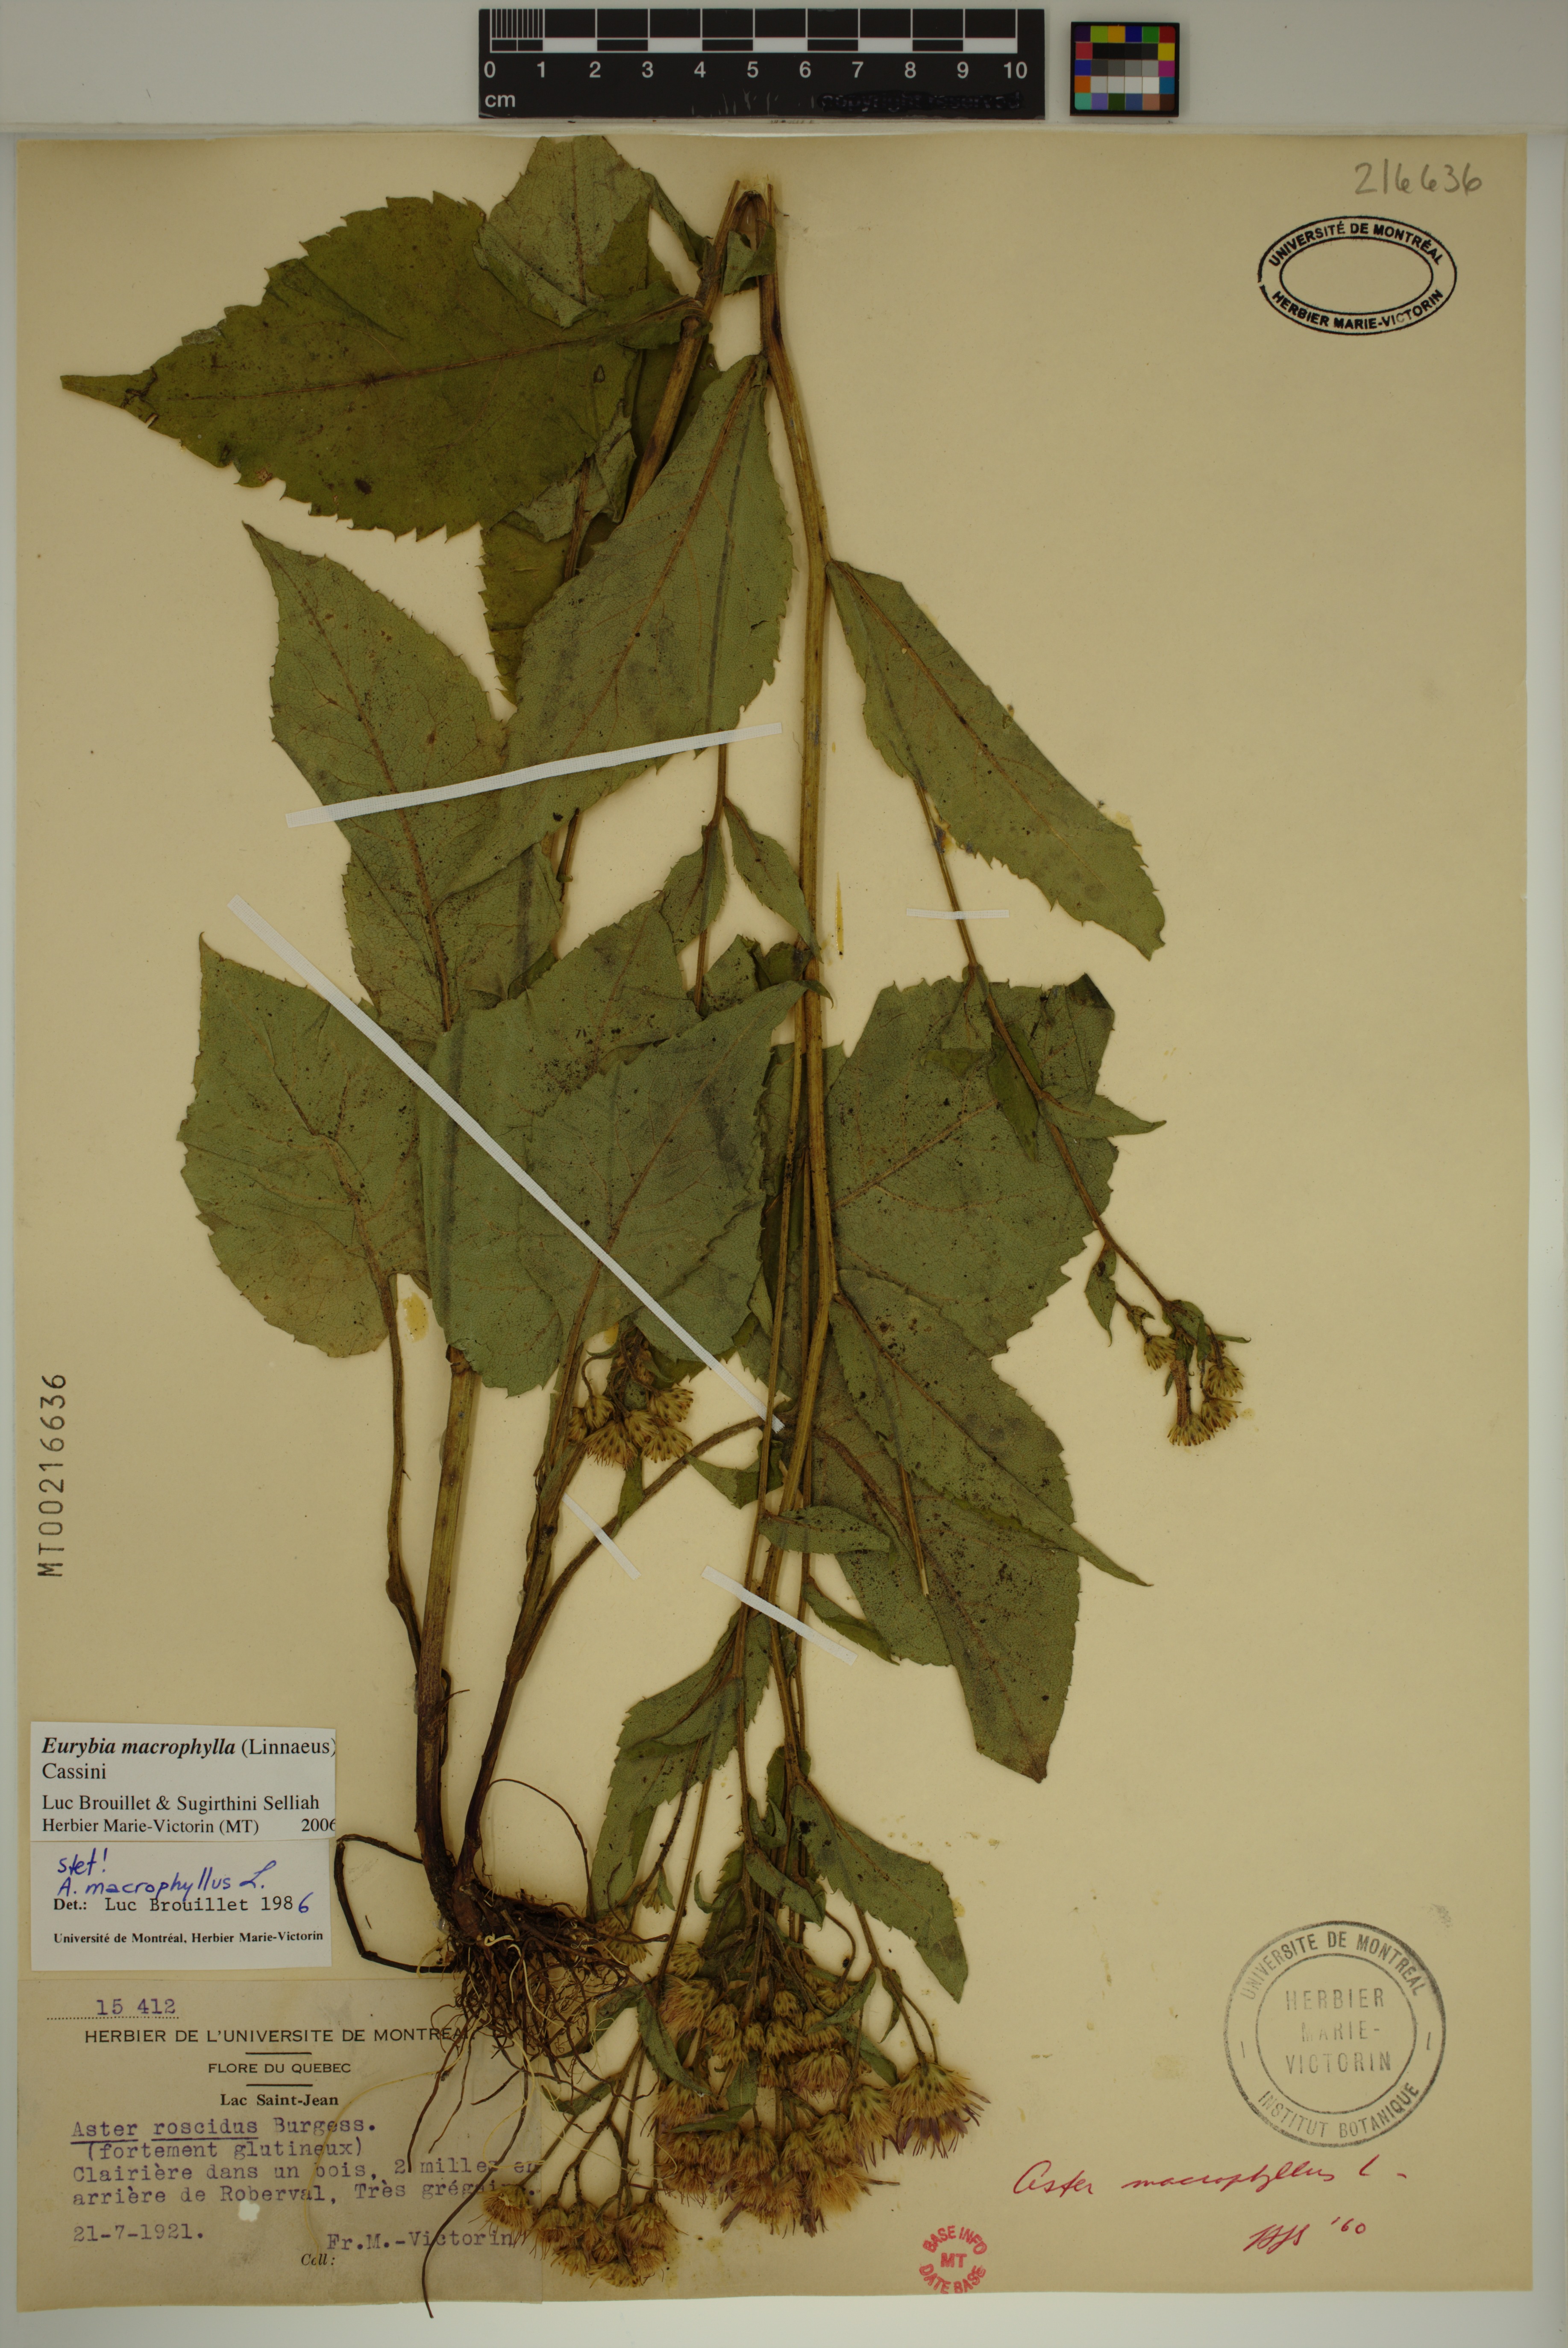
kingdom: Plantae
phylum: Tracheophyta
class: Magnoliopsida
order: Asterales
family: Asteraceae
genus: Eurybia
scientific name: Eurybia macrophylla
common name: Big-leaved aster
